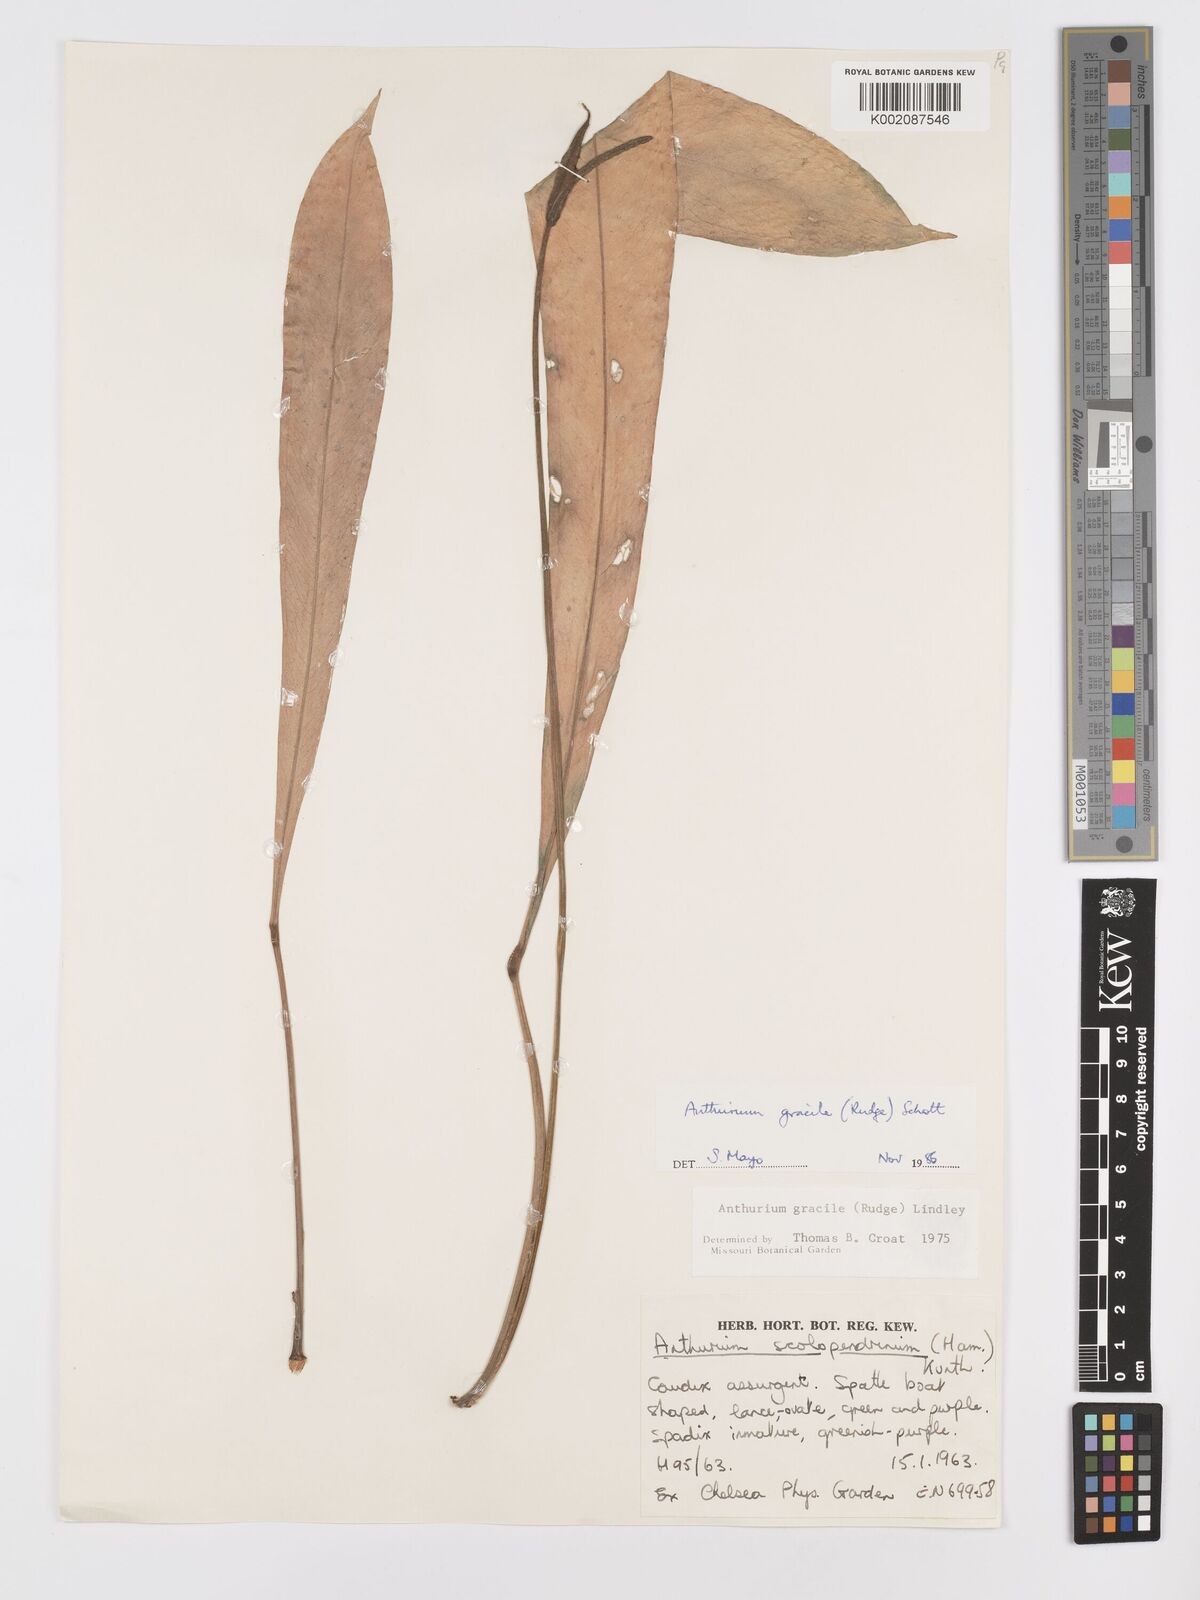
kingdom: Plantae
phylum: Tracheophyta
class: Liliopsida
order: Alismatales
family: Araceae
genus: Anthurium
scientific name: Anthurium friedrichsthalii
